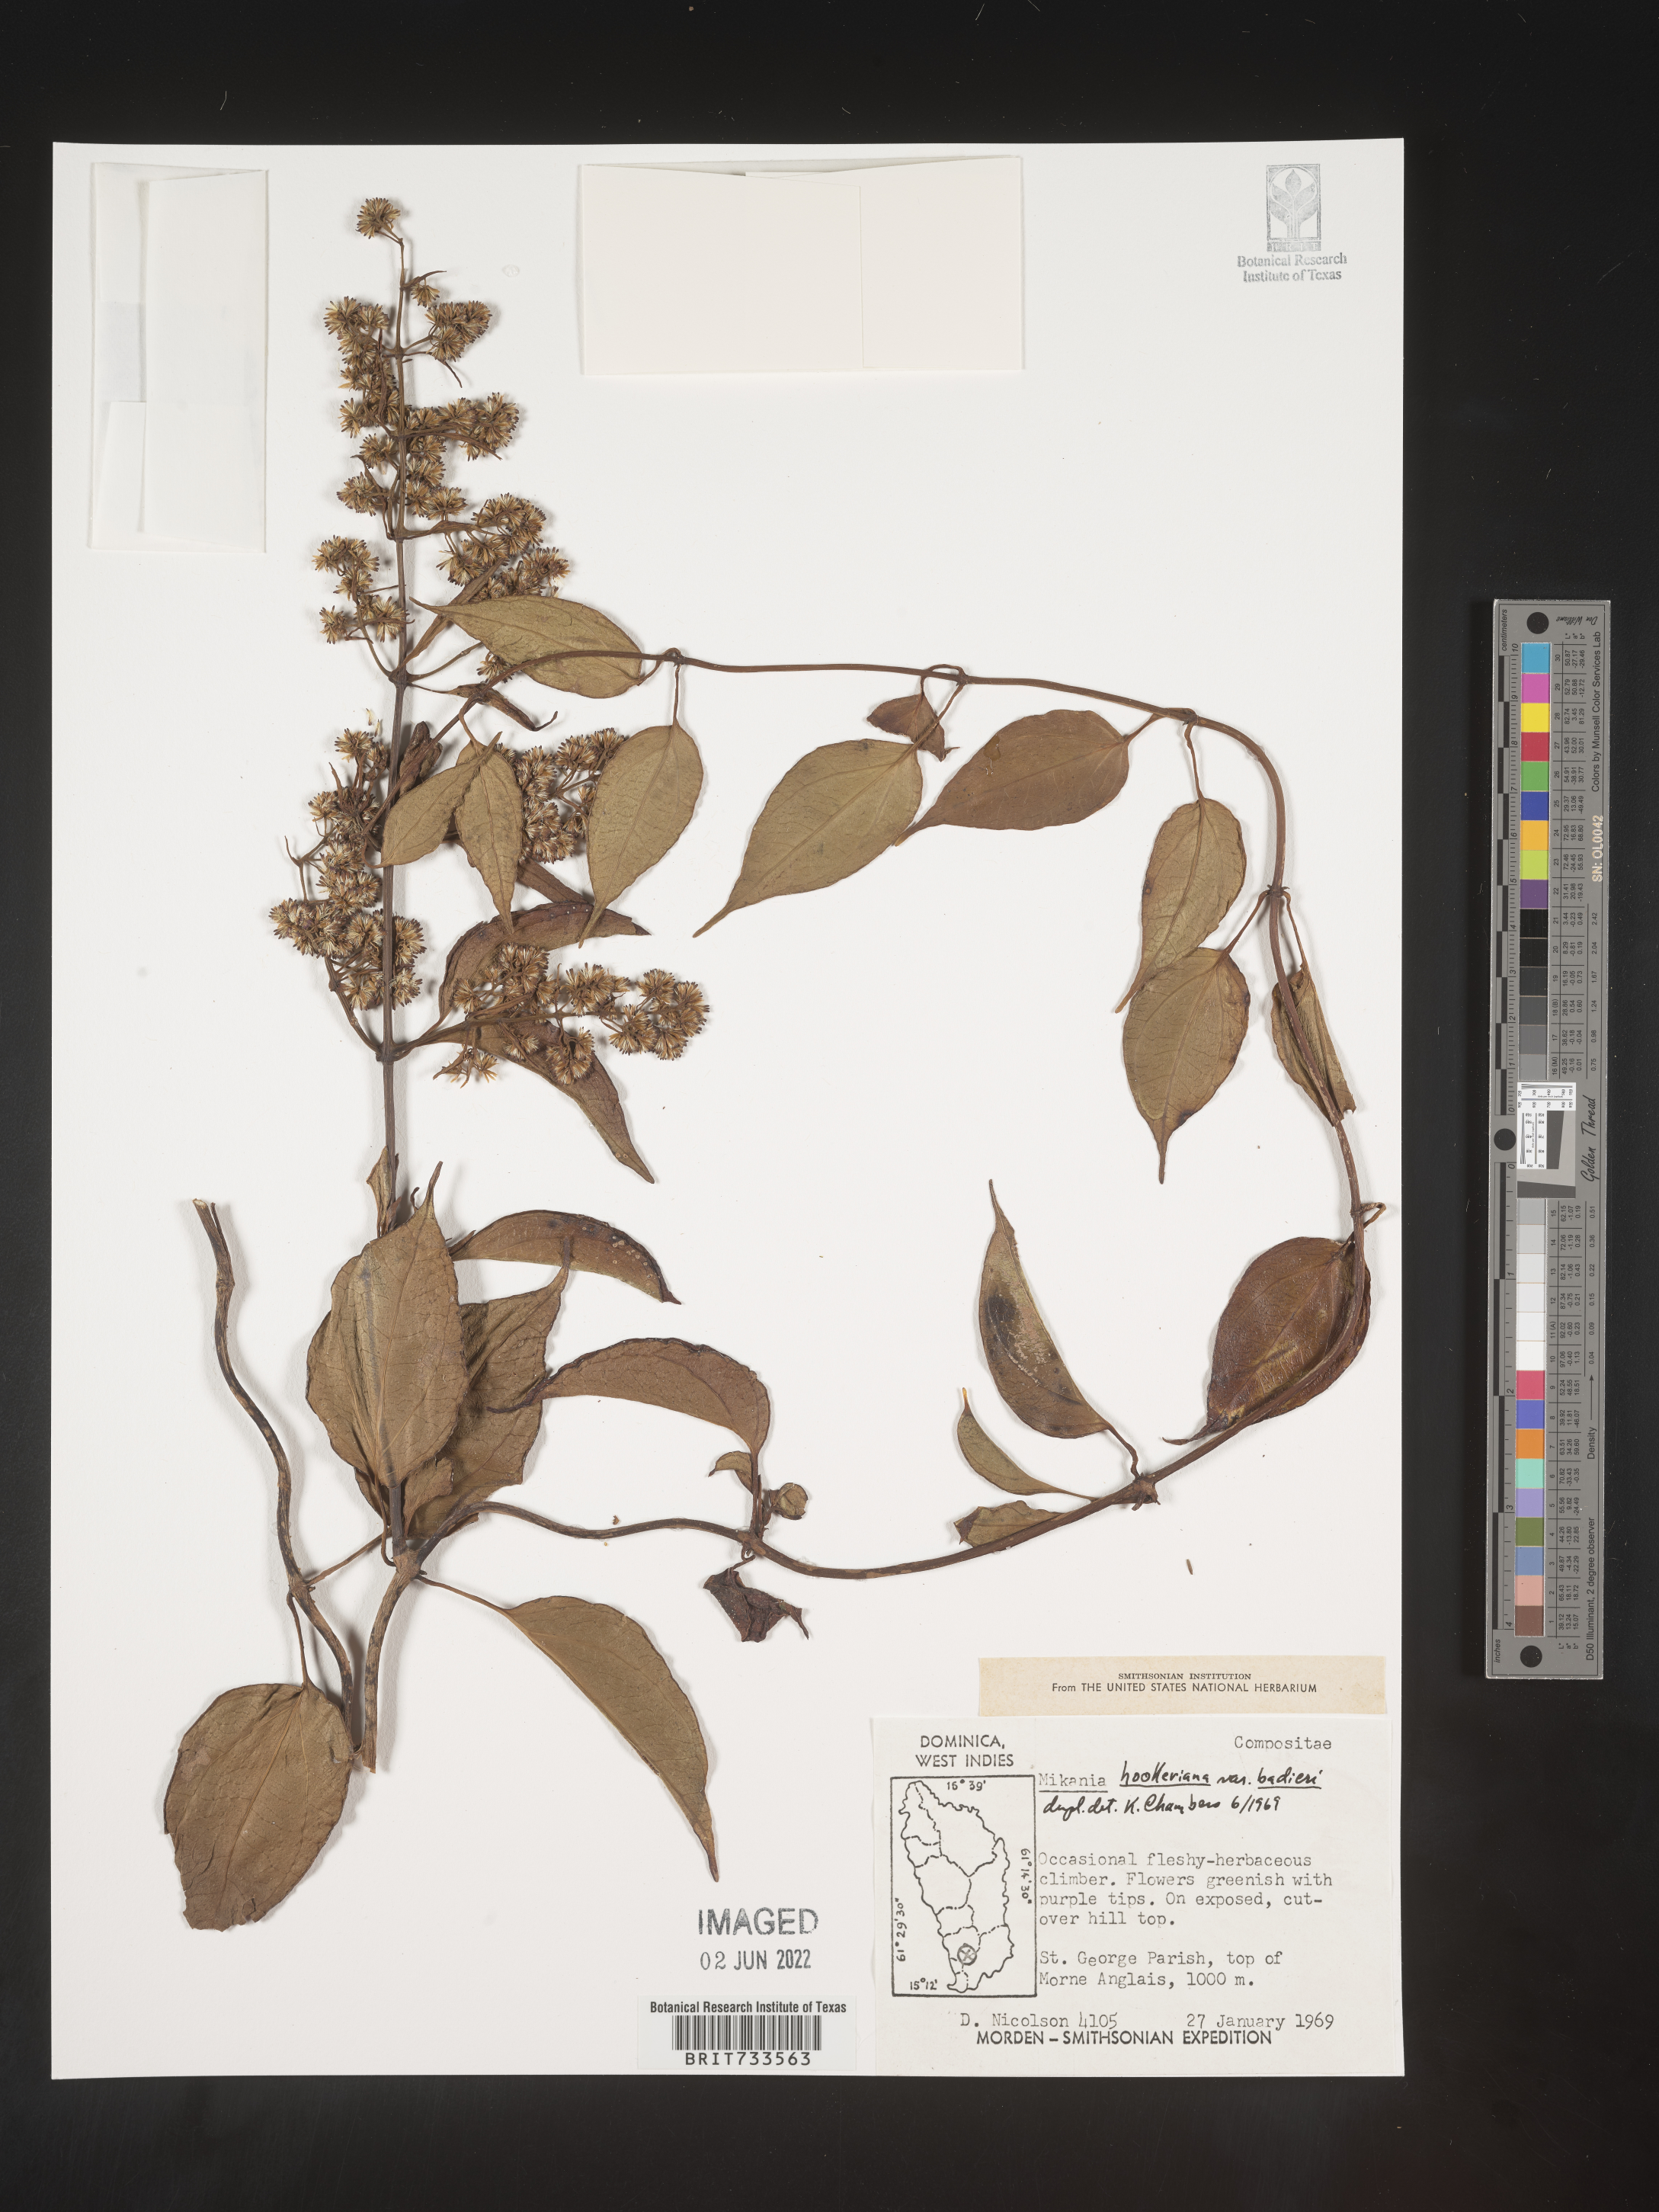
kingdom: Plantae
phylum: Tracheophyta
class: Magnoliopsida
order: Asterales
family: Asteraceae
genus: Mikania
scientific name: Mikania
